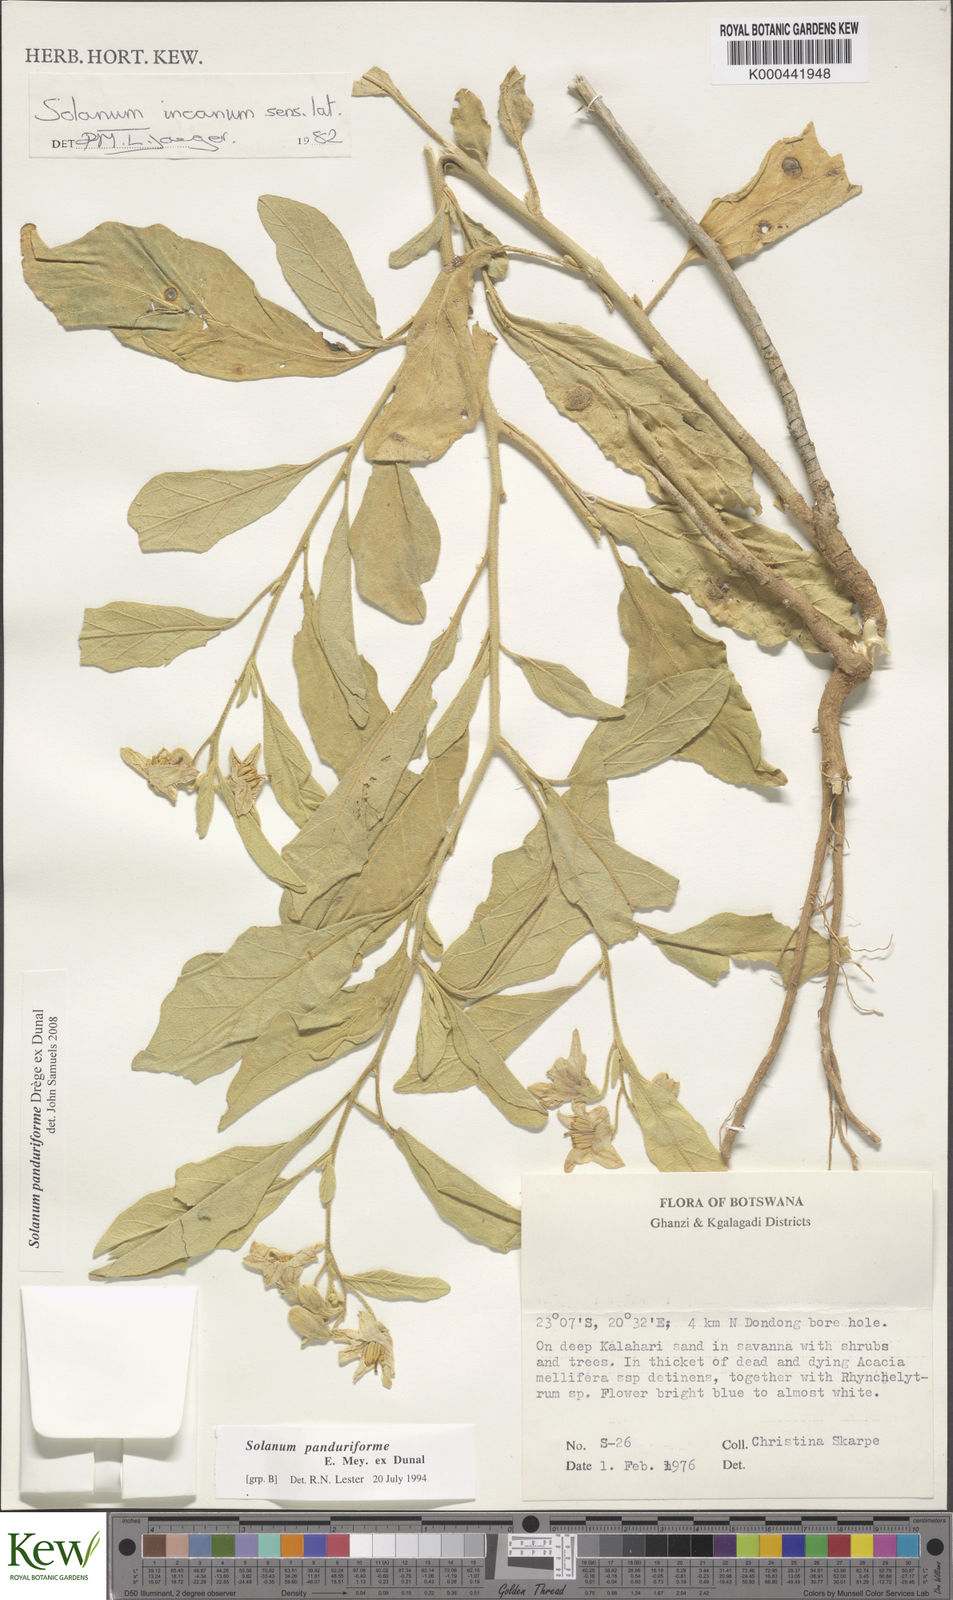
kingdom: Plantae
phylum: Tracheophyta
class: Magnoliopsida
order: Solanales
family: Solanaceae
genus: Solanum
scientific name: Solanum campylacanthum
